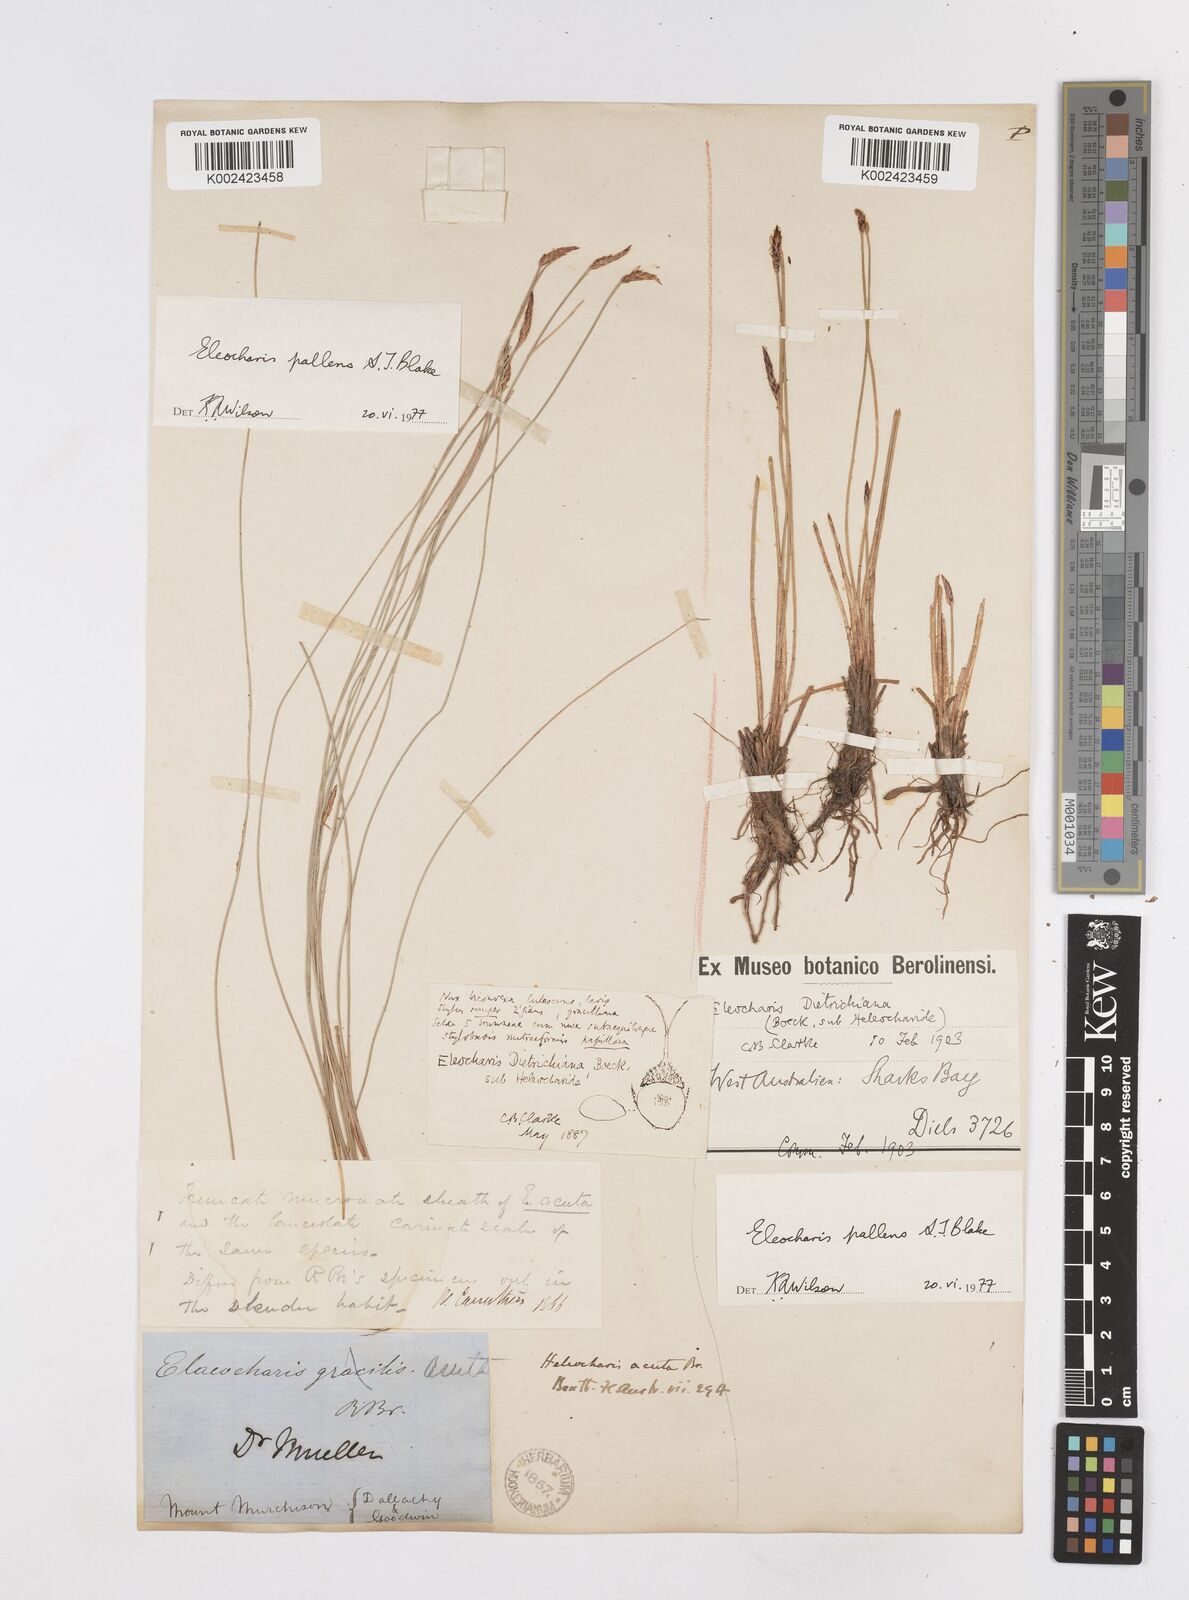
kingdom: Plantae
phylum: Tracheophyta
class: Liliopsida
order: Poales
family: Cyperaceae
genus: Eleocharis
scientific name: Eleocharis acuta
